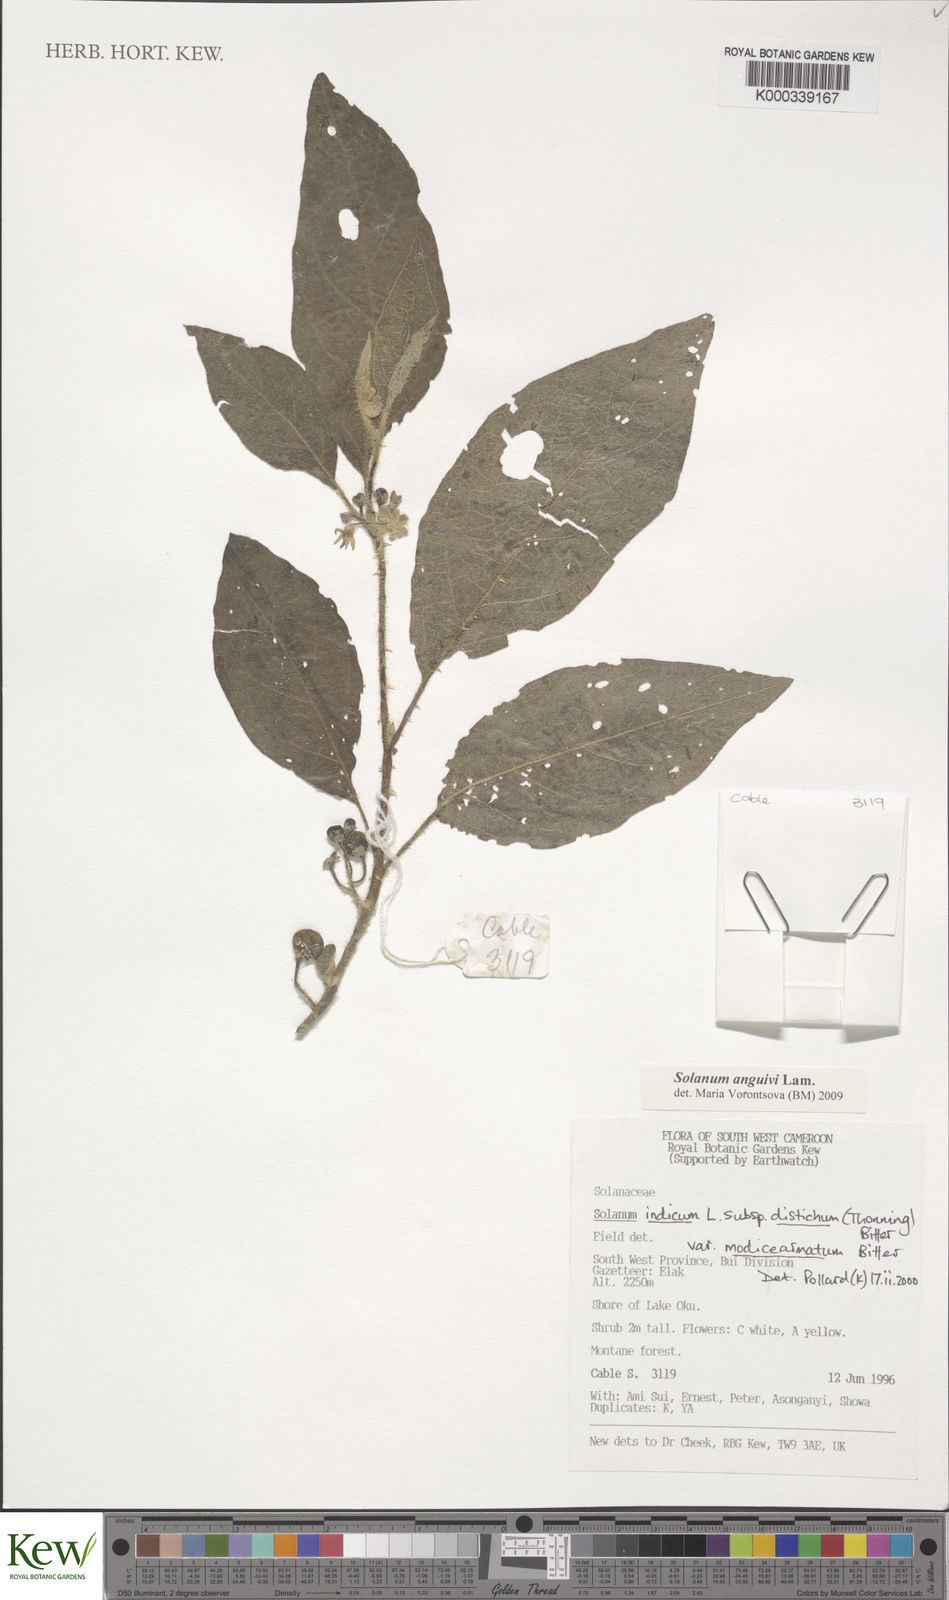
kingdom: Plantae
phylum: Tracheophyta
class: Magnoliopsida
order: Solanales
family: Solanaceae
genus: Solanum
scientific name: Solanum violaceum
